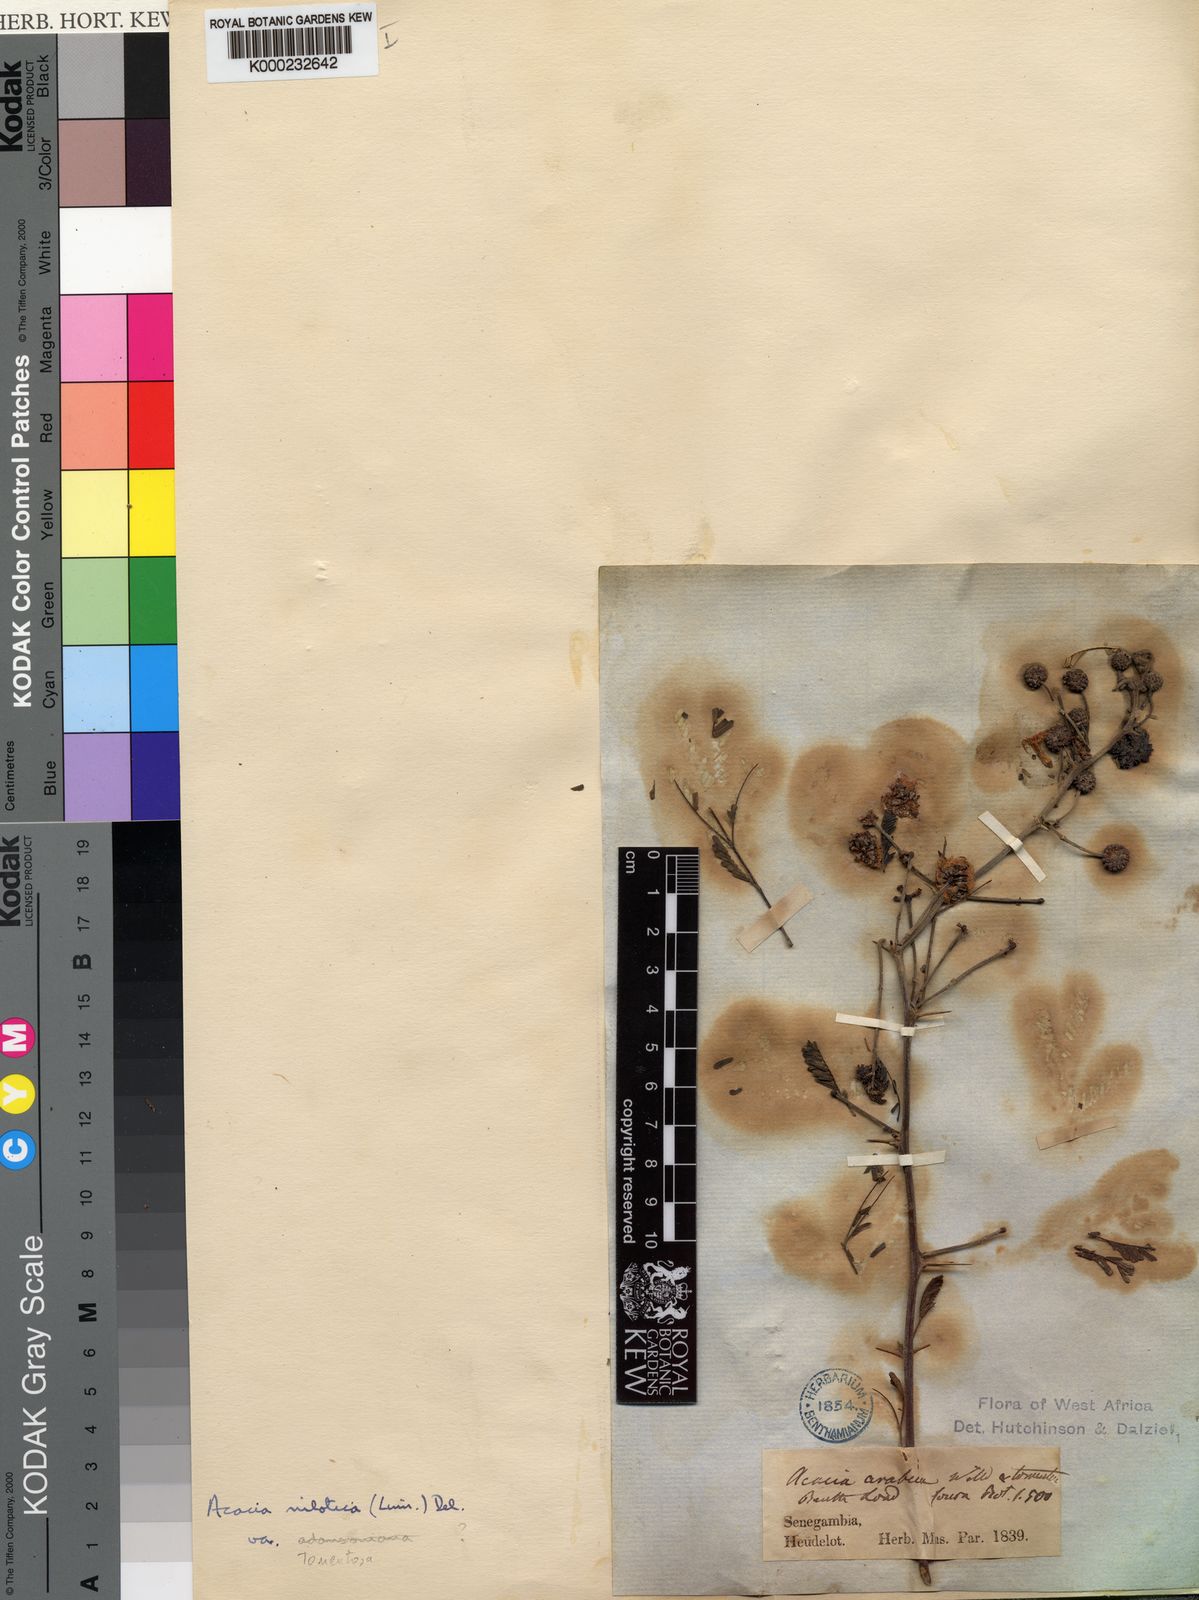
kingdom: Plantae
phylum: Tracheophyta
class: Magnoliopsida
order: Fabales
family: Fabaceae
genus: Vachellia
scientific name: Vachellia nilotica
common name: Arabic gumtree
